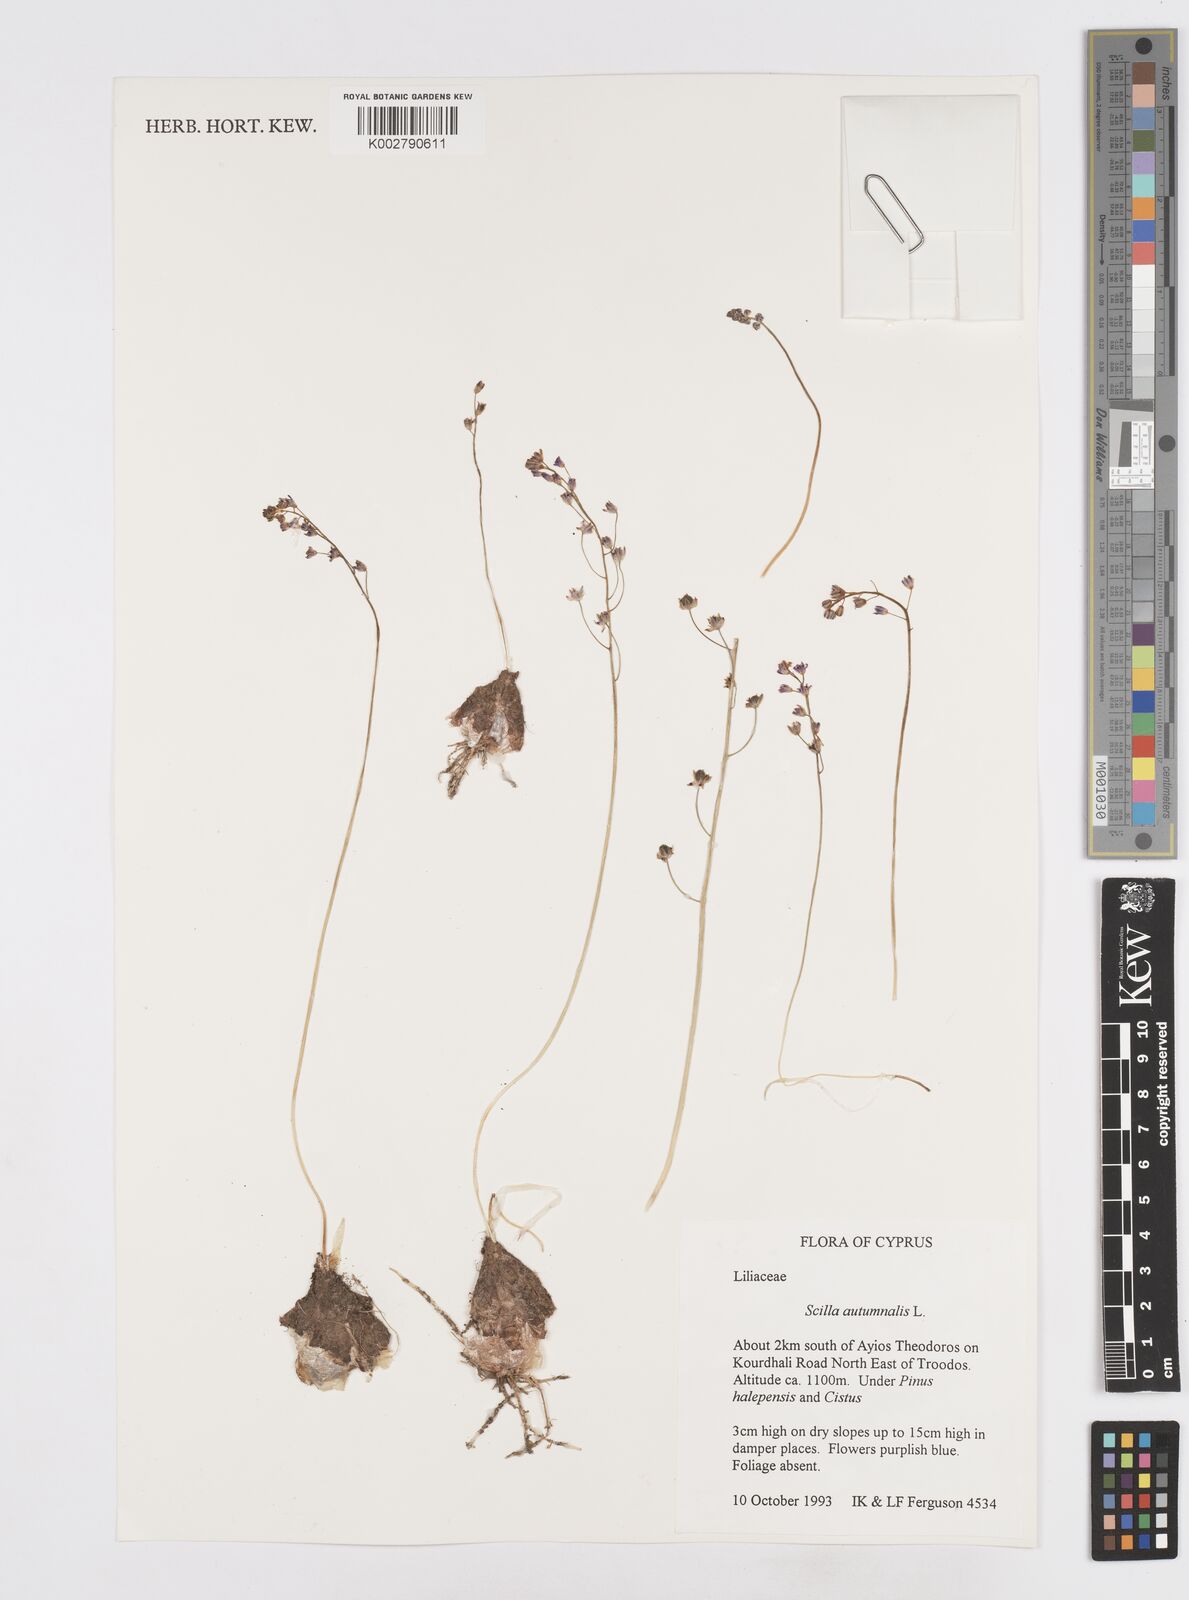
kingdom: Plantae
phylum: Tracheophyta
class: Liliopsida
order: Asparagales
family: Asparagaceae
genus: Prospero
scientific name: Prospero autumnale
